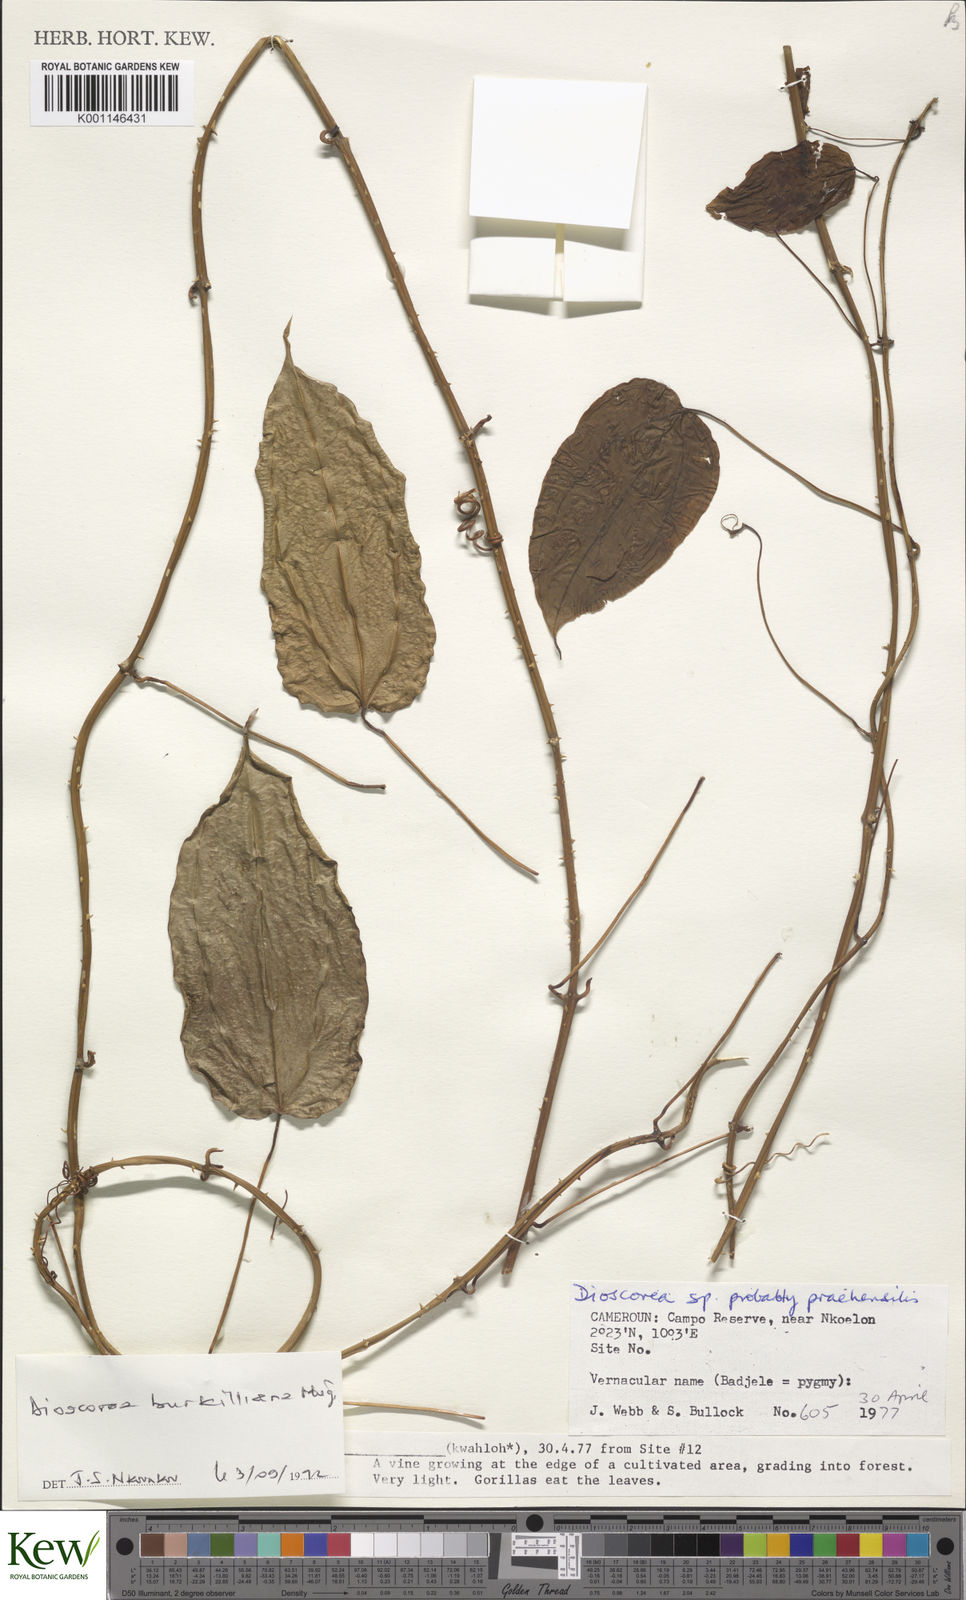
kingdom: Plantae
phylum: Tracheophyta
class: Liliopsida
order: Dioscoreales
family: Dioscoreaceae
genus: Dioscorea
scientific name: Dioscorea praehensilis
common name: Bush yam
